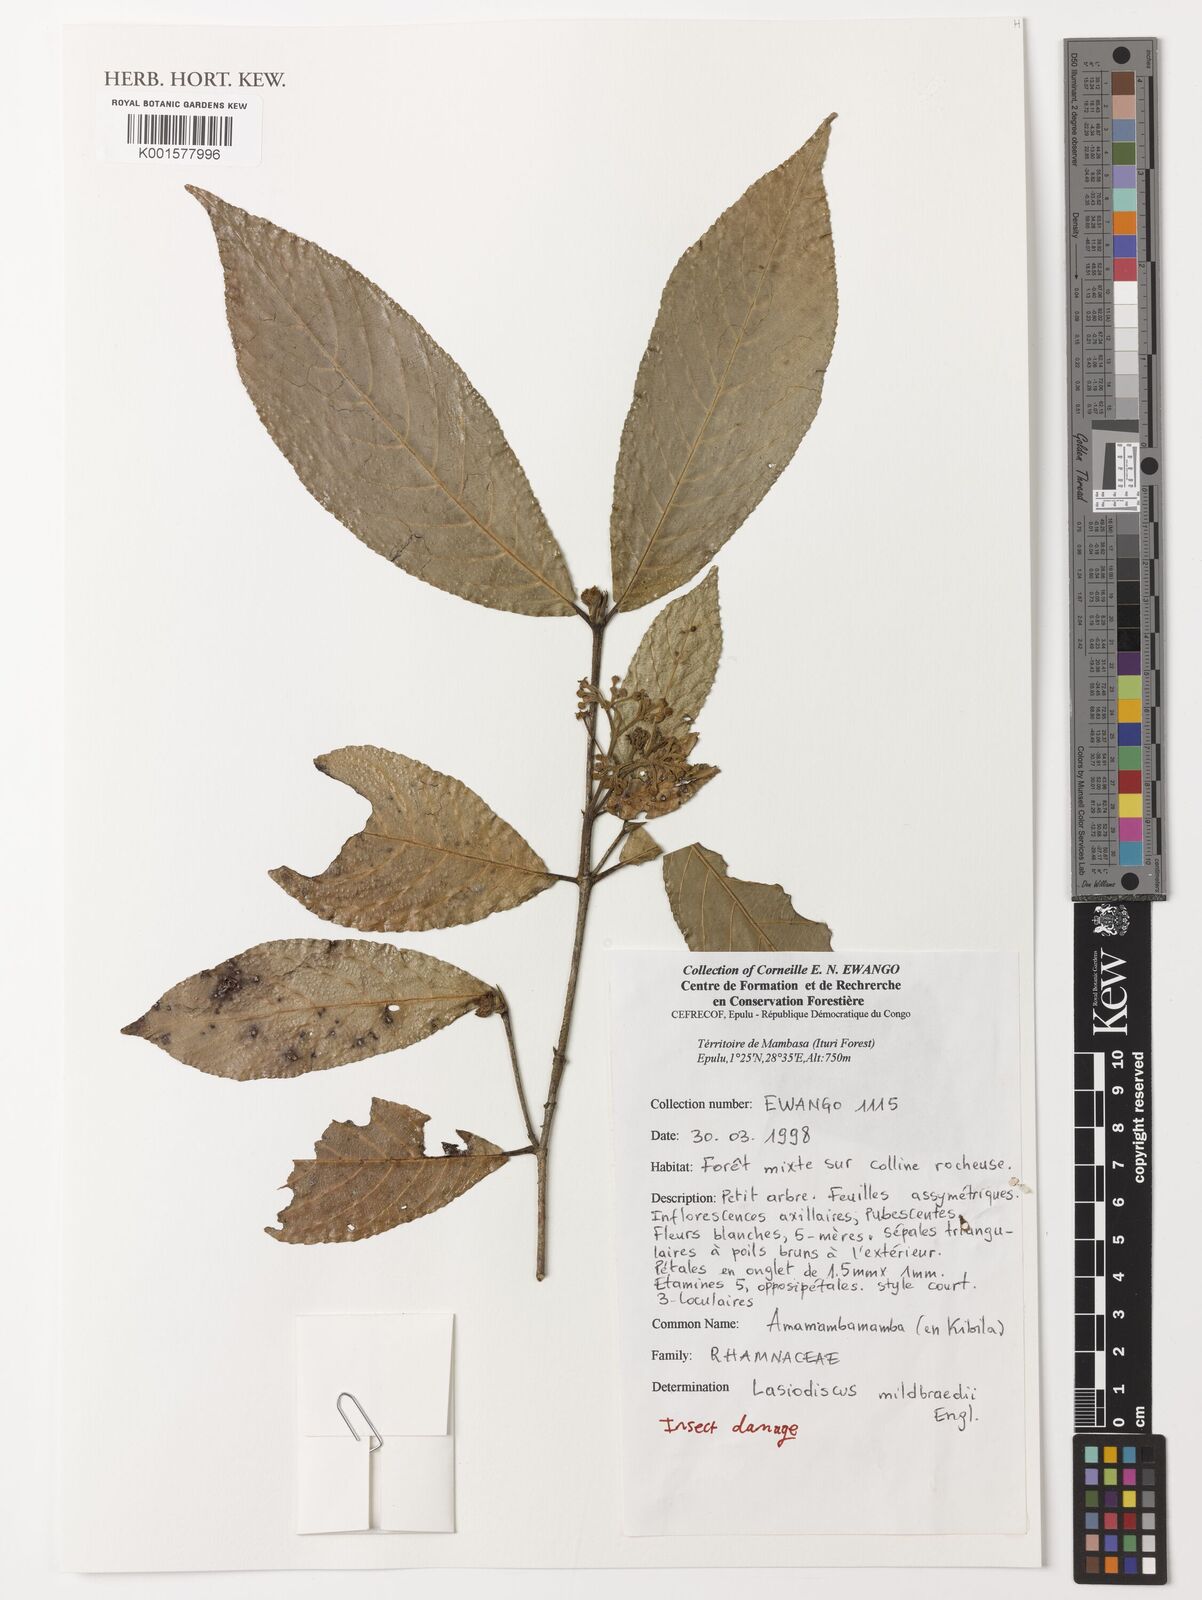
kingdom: Plantae
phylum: Tracheophyta
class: Magnoliopsida
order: Rosales
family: Rhamnaceae
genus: Lasiodiscus
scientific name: Lasiodiscus mildbraedii
